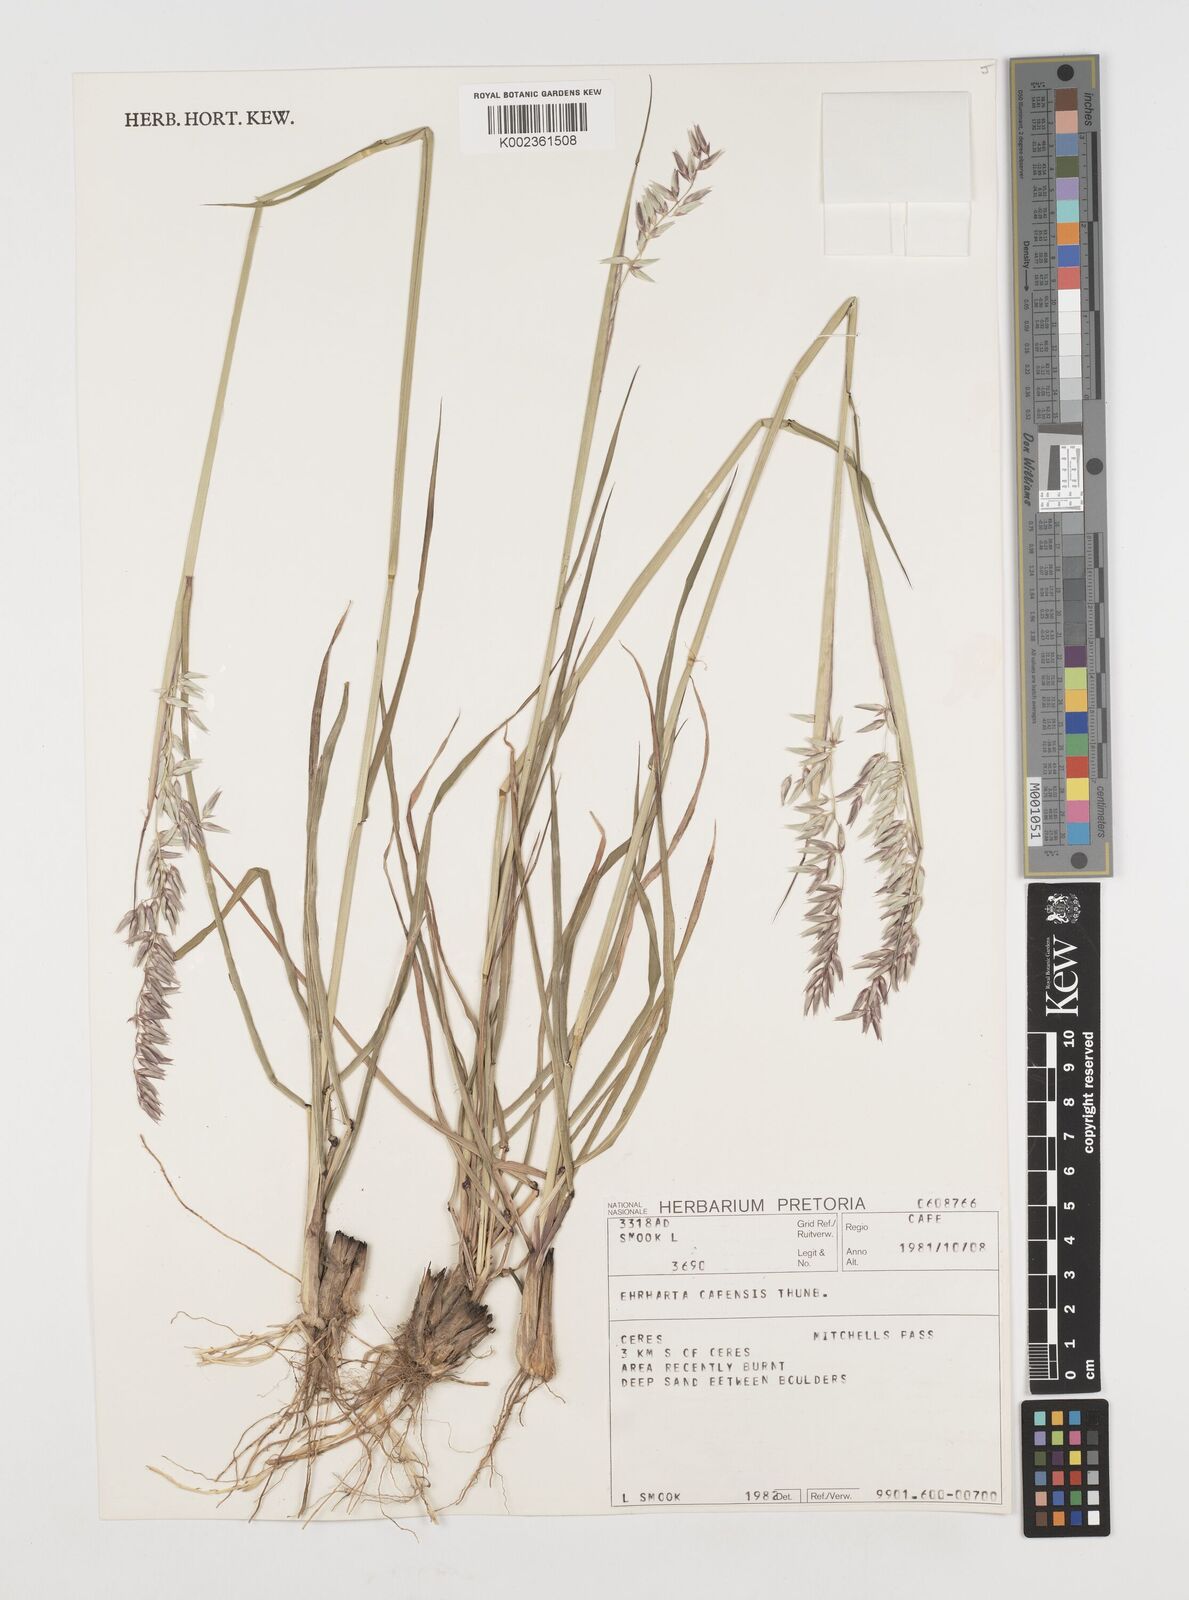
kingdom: Plantae
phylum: Tracheophyta
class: Liliopsida
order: Poales
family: Poaceae
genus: Ehrharta
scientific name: Ehrharta capensis
